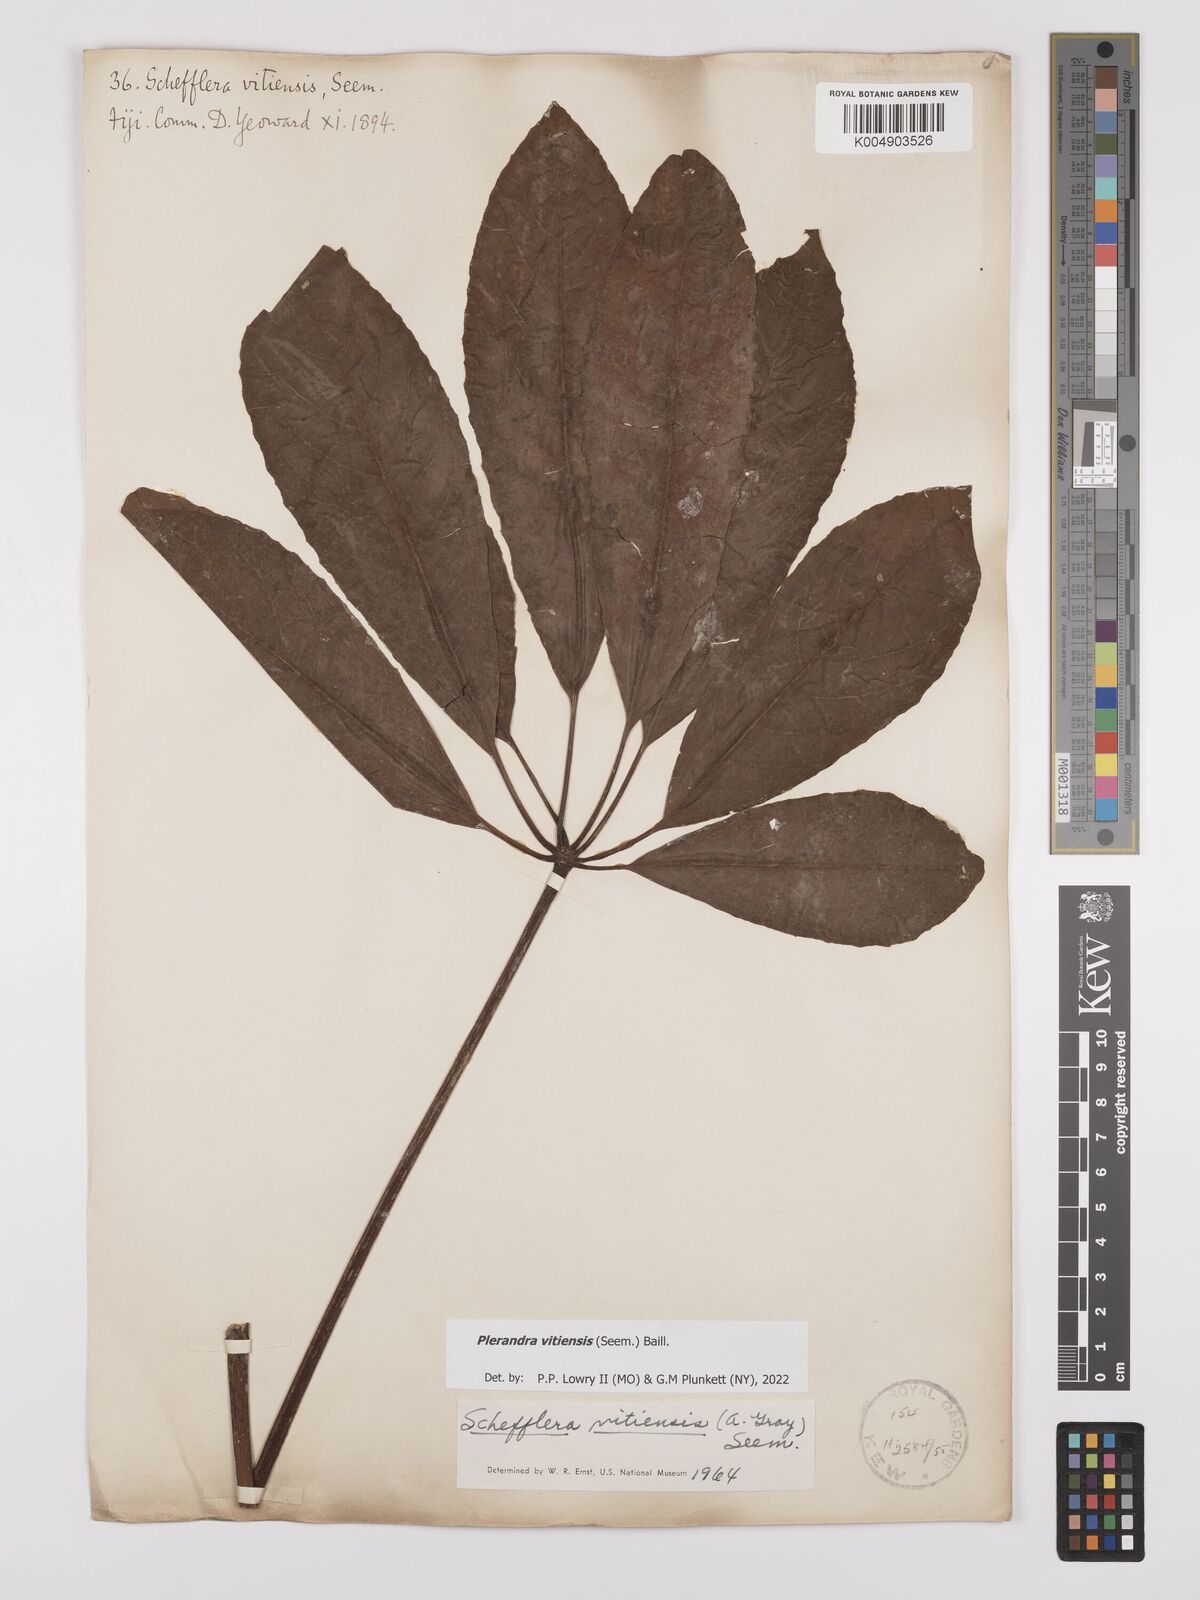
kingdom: Plantae
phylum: Tracheophyta
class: Magnoliopsida
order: Apiales
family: Araliaceae
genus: Schefflera
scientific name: Schefflera vitiensis
